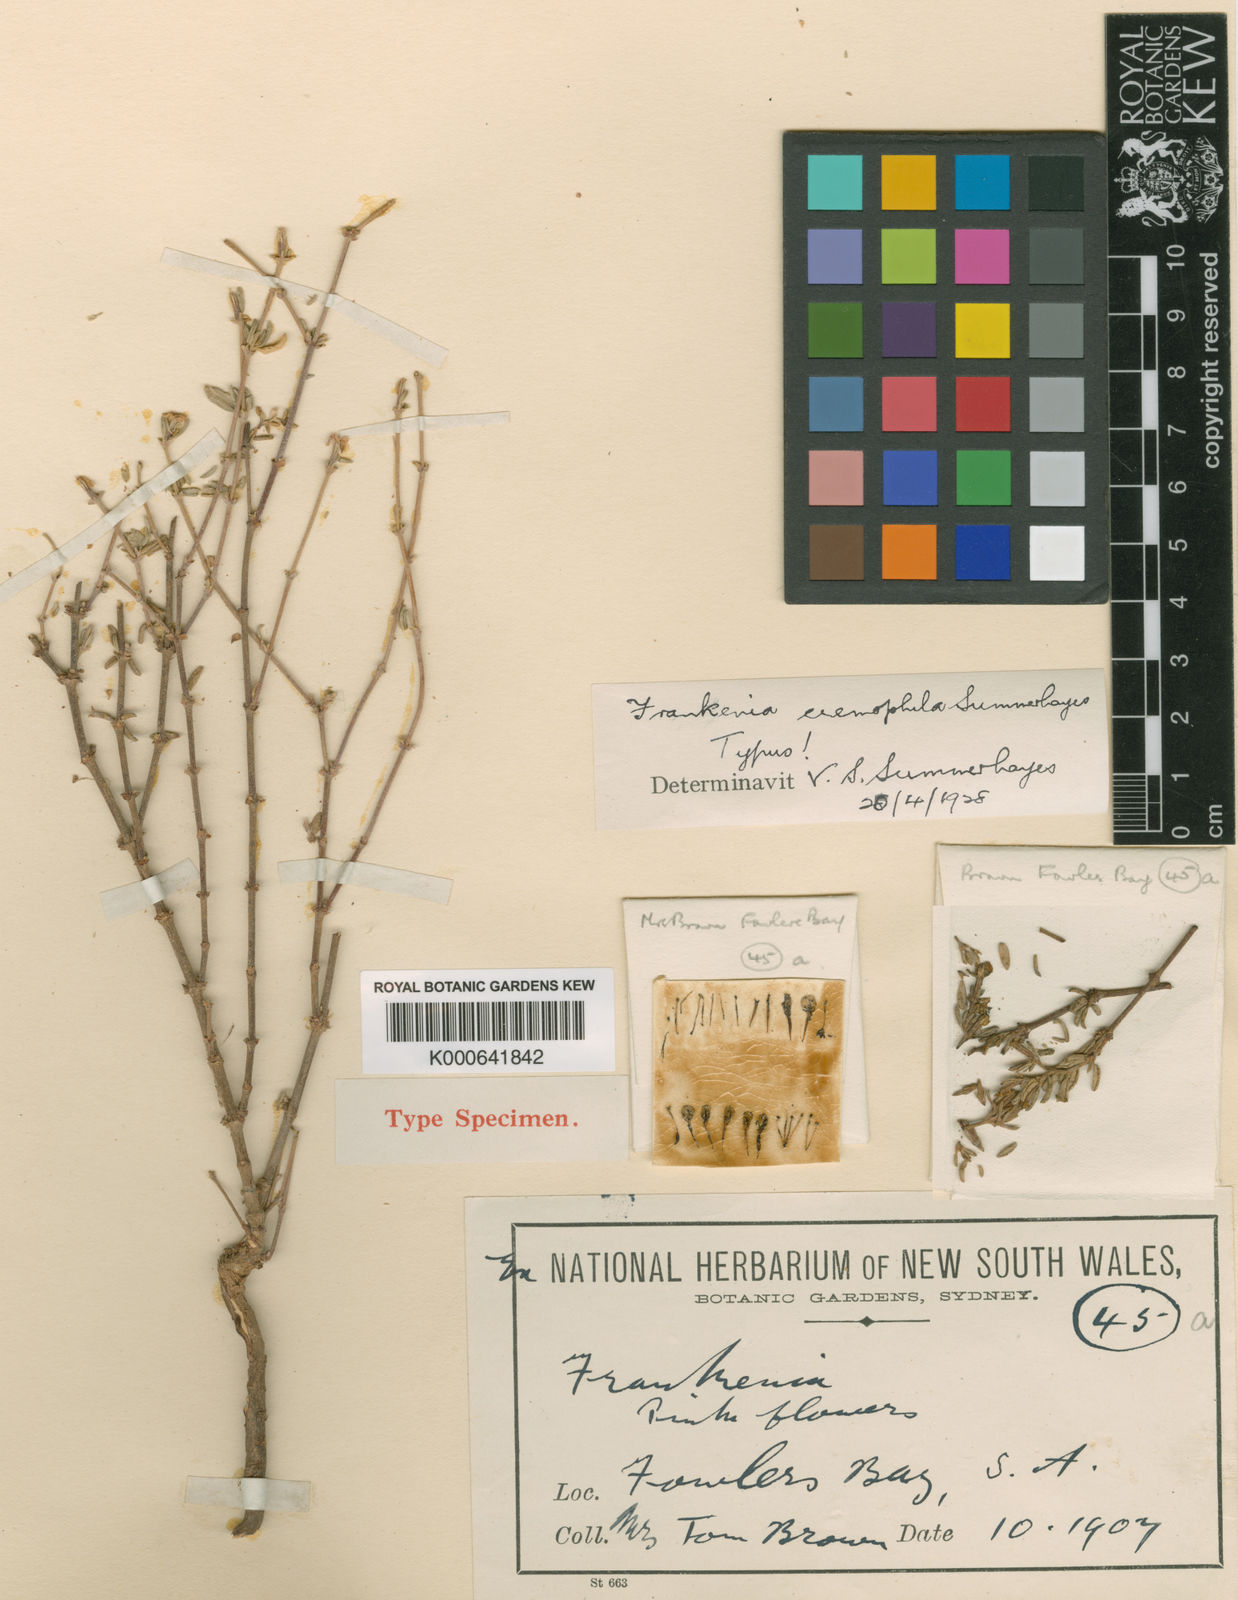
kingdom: Plantae
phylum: Tracheophyta
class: Magnoliopsida
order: Caryophyllales
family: Frankeniaceae
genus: Frankenia
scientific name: Frankenia eremophila
